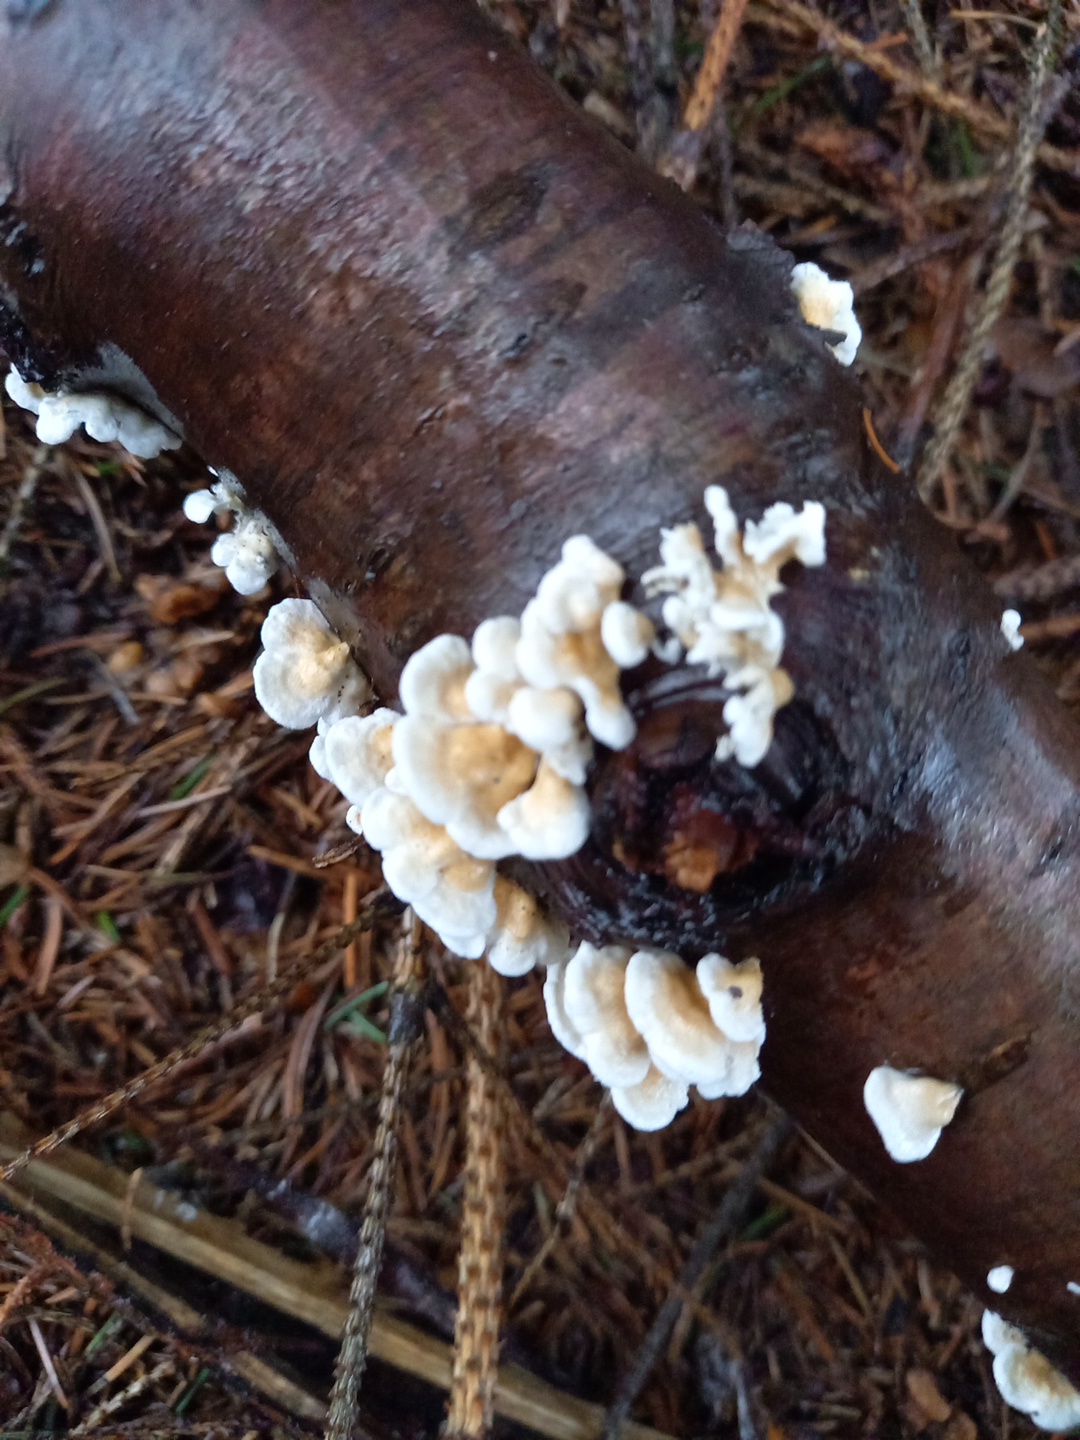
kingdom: Fungi
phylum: Basidiomycota
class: Agaricomycetes
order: Amylocorticiales
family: Amylocorticiaceae
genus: Plicaturopsis
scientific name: Plicaturopsis crispa
